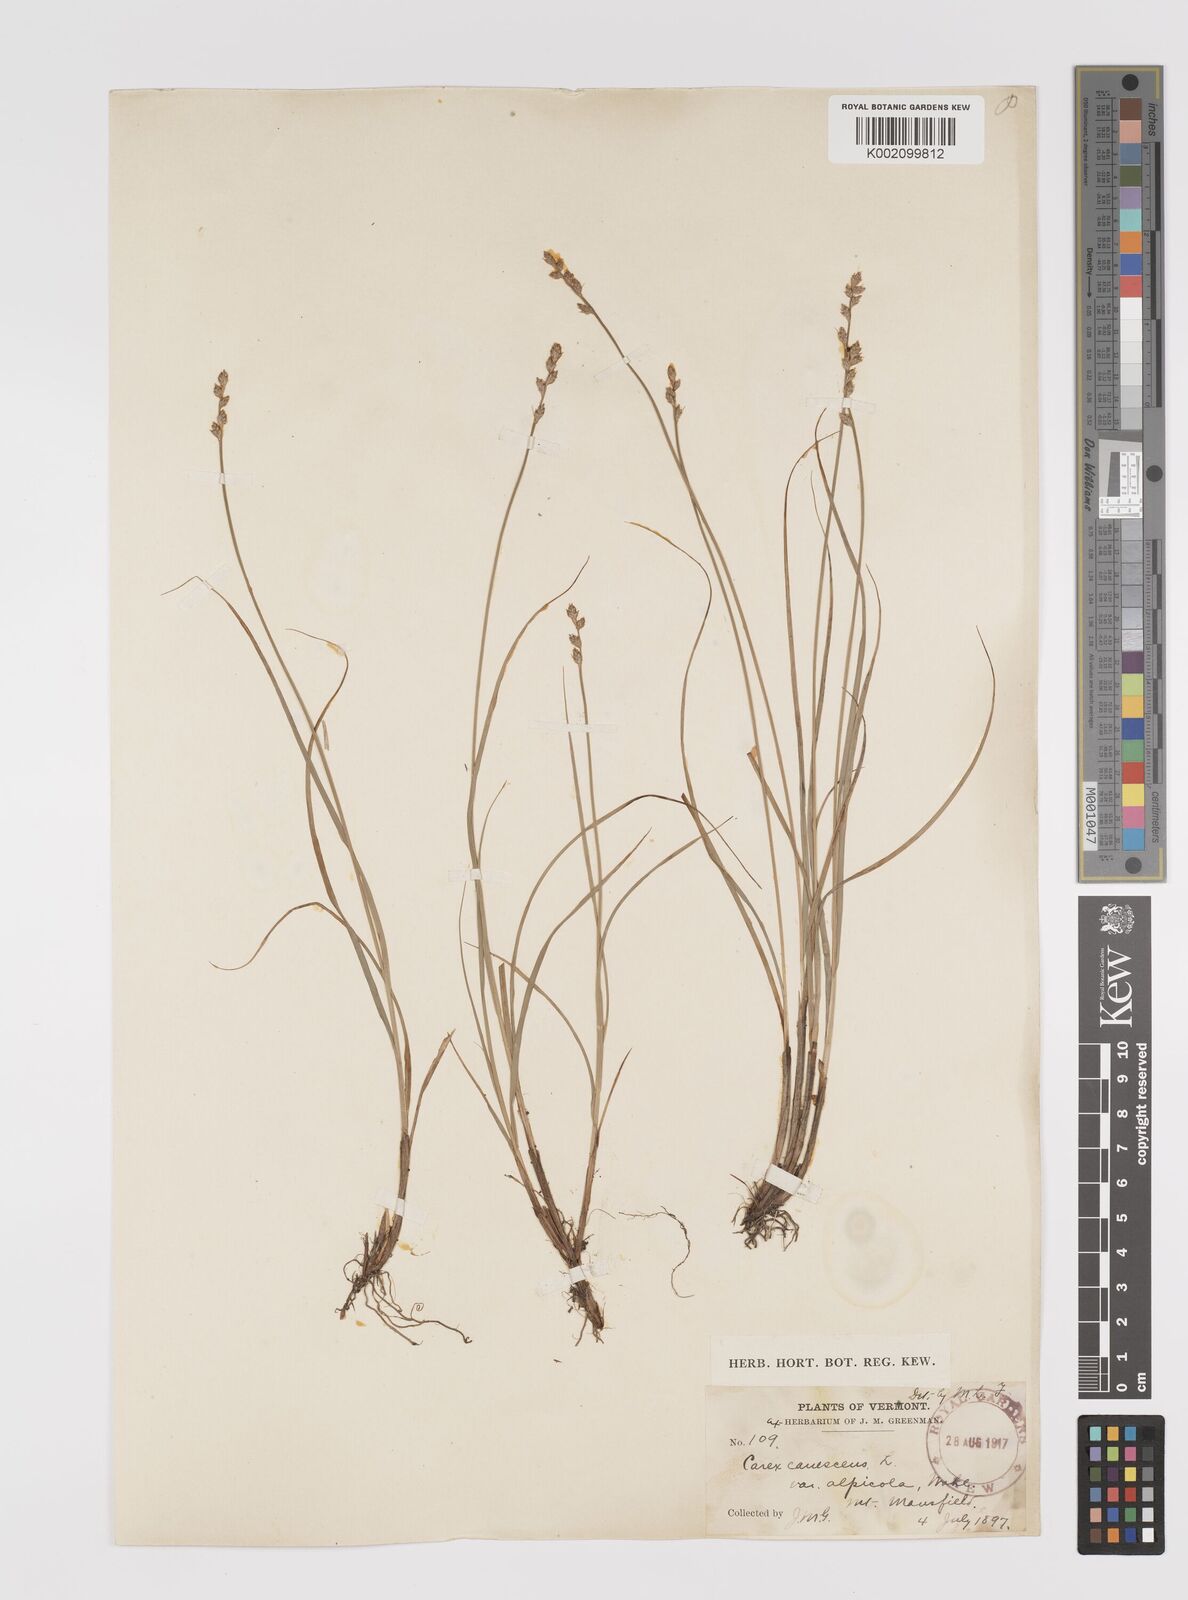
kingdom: Plantae
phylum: Tracheophyta
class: Liliopsida
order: Poales
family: Cyperaceae
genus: Carex
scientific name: Carex curta
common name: White sedge
